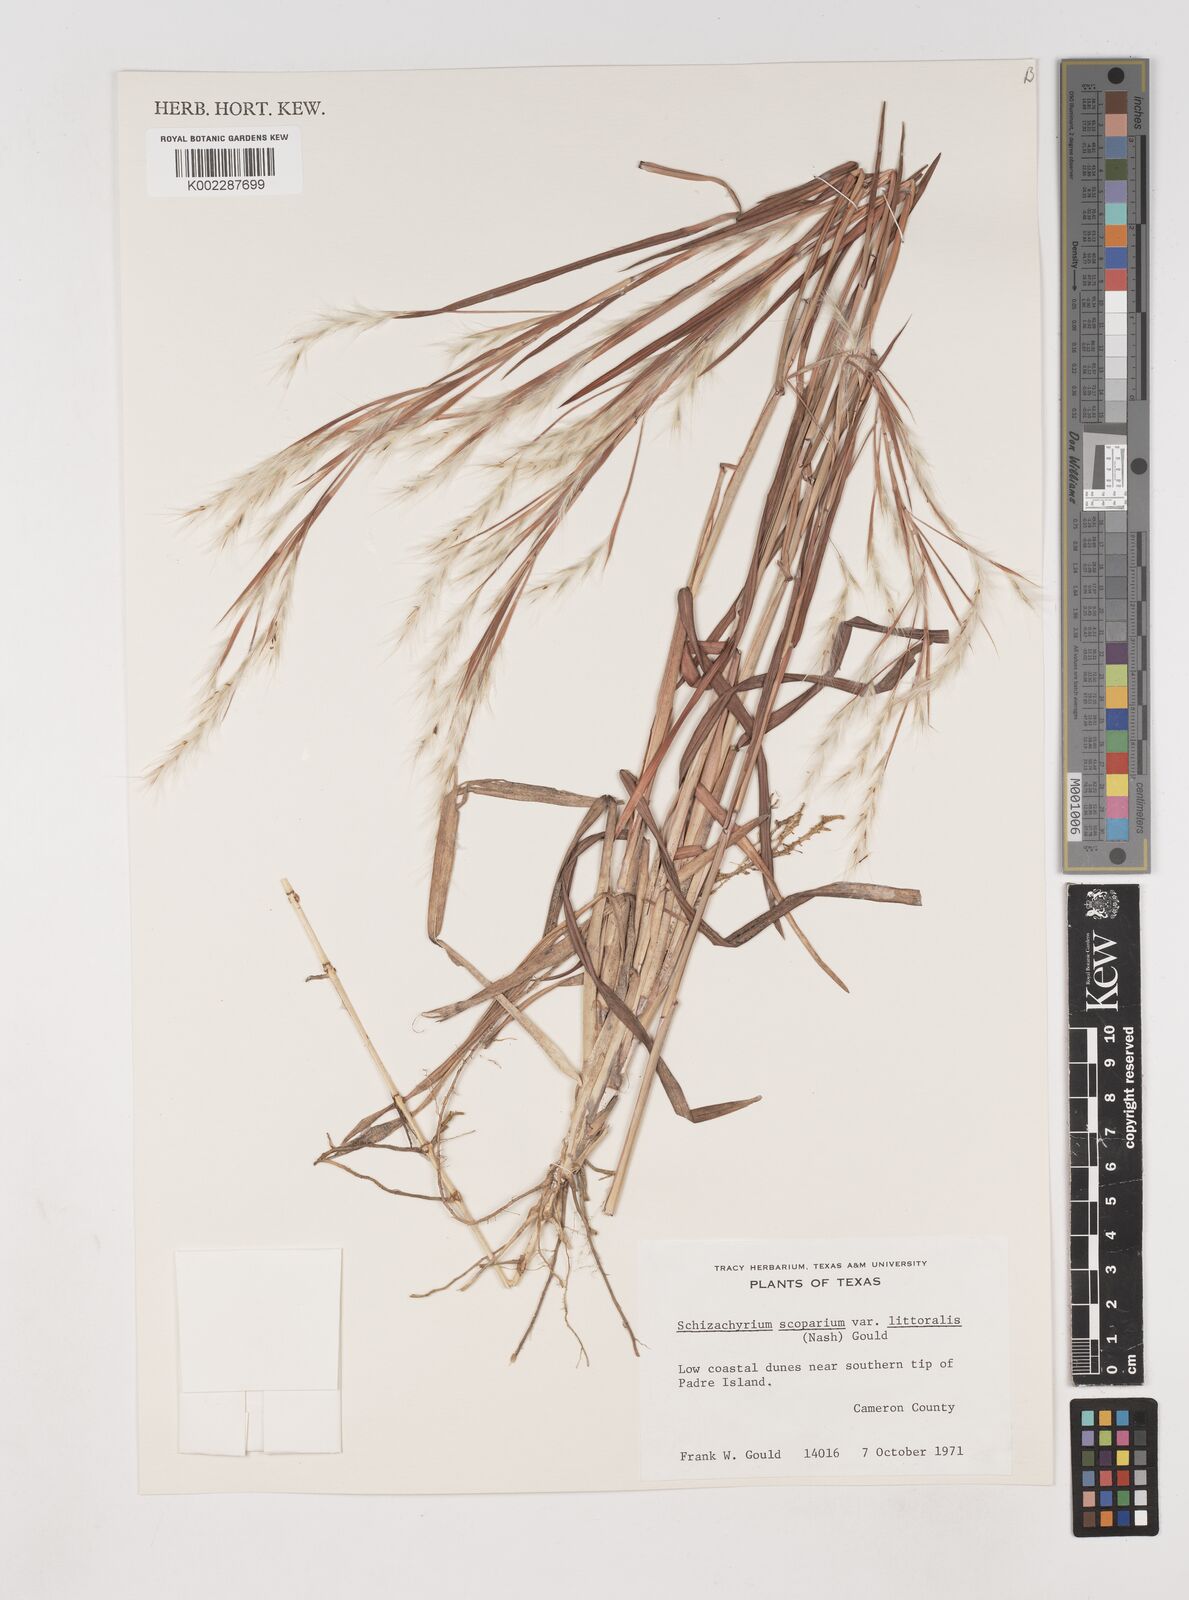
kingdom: Plantae
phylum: Tracheophyta
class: Liliopsida
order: Poales
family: Poaceae
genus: Schizachyrium
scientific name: Schizachyrium scoparium
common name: Little bluestem
